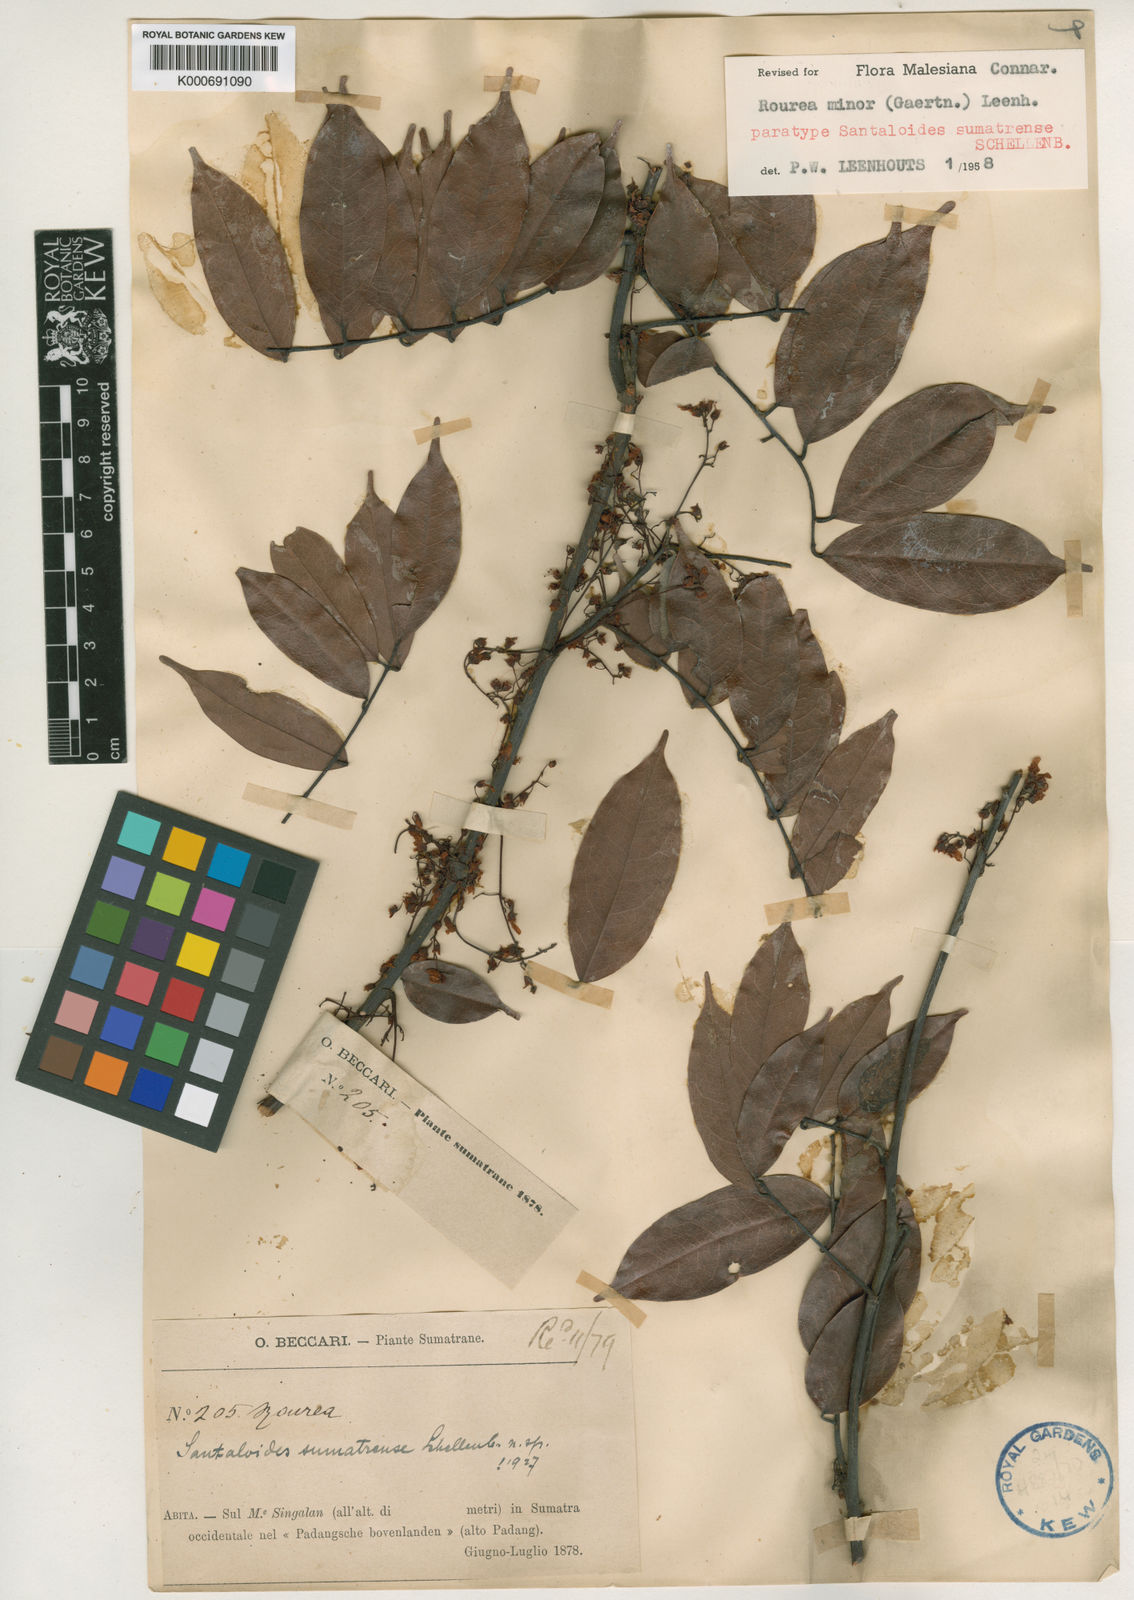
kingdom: Plantae
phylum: Tracheophyta
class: Magnoliopsida
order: Oxalidales
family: Connaraceae
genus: Rourea
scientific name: Rourea
